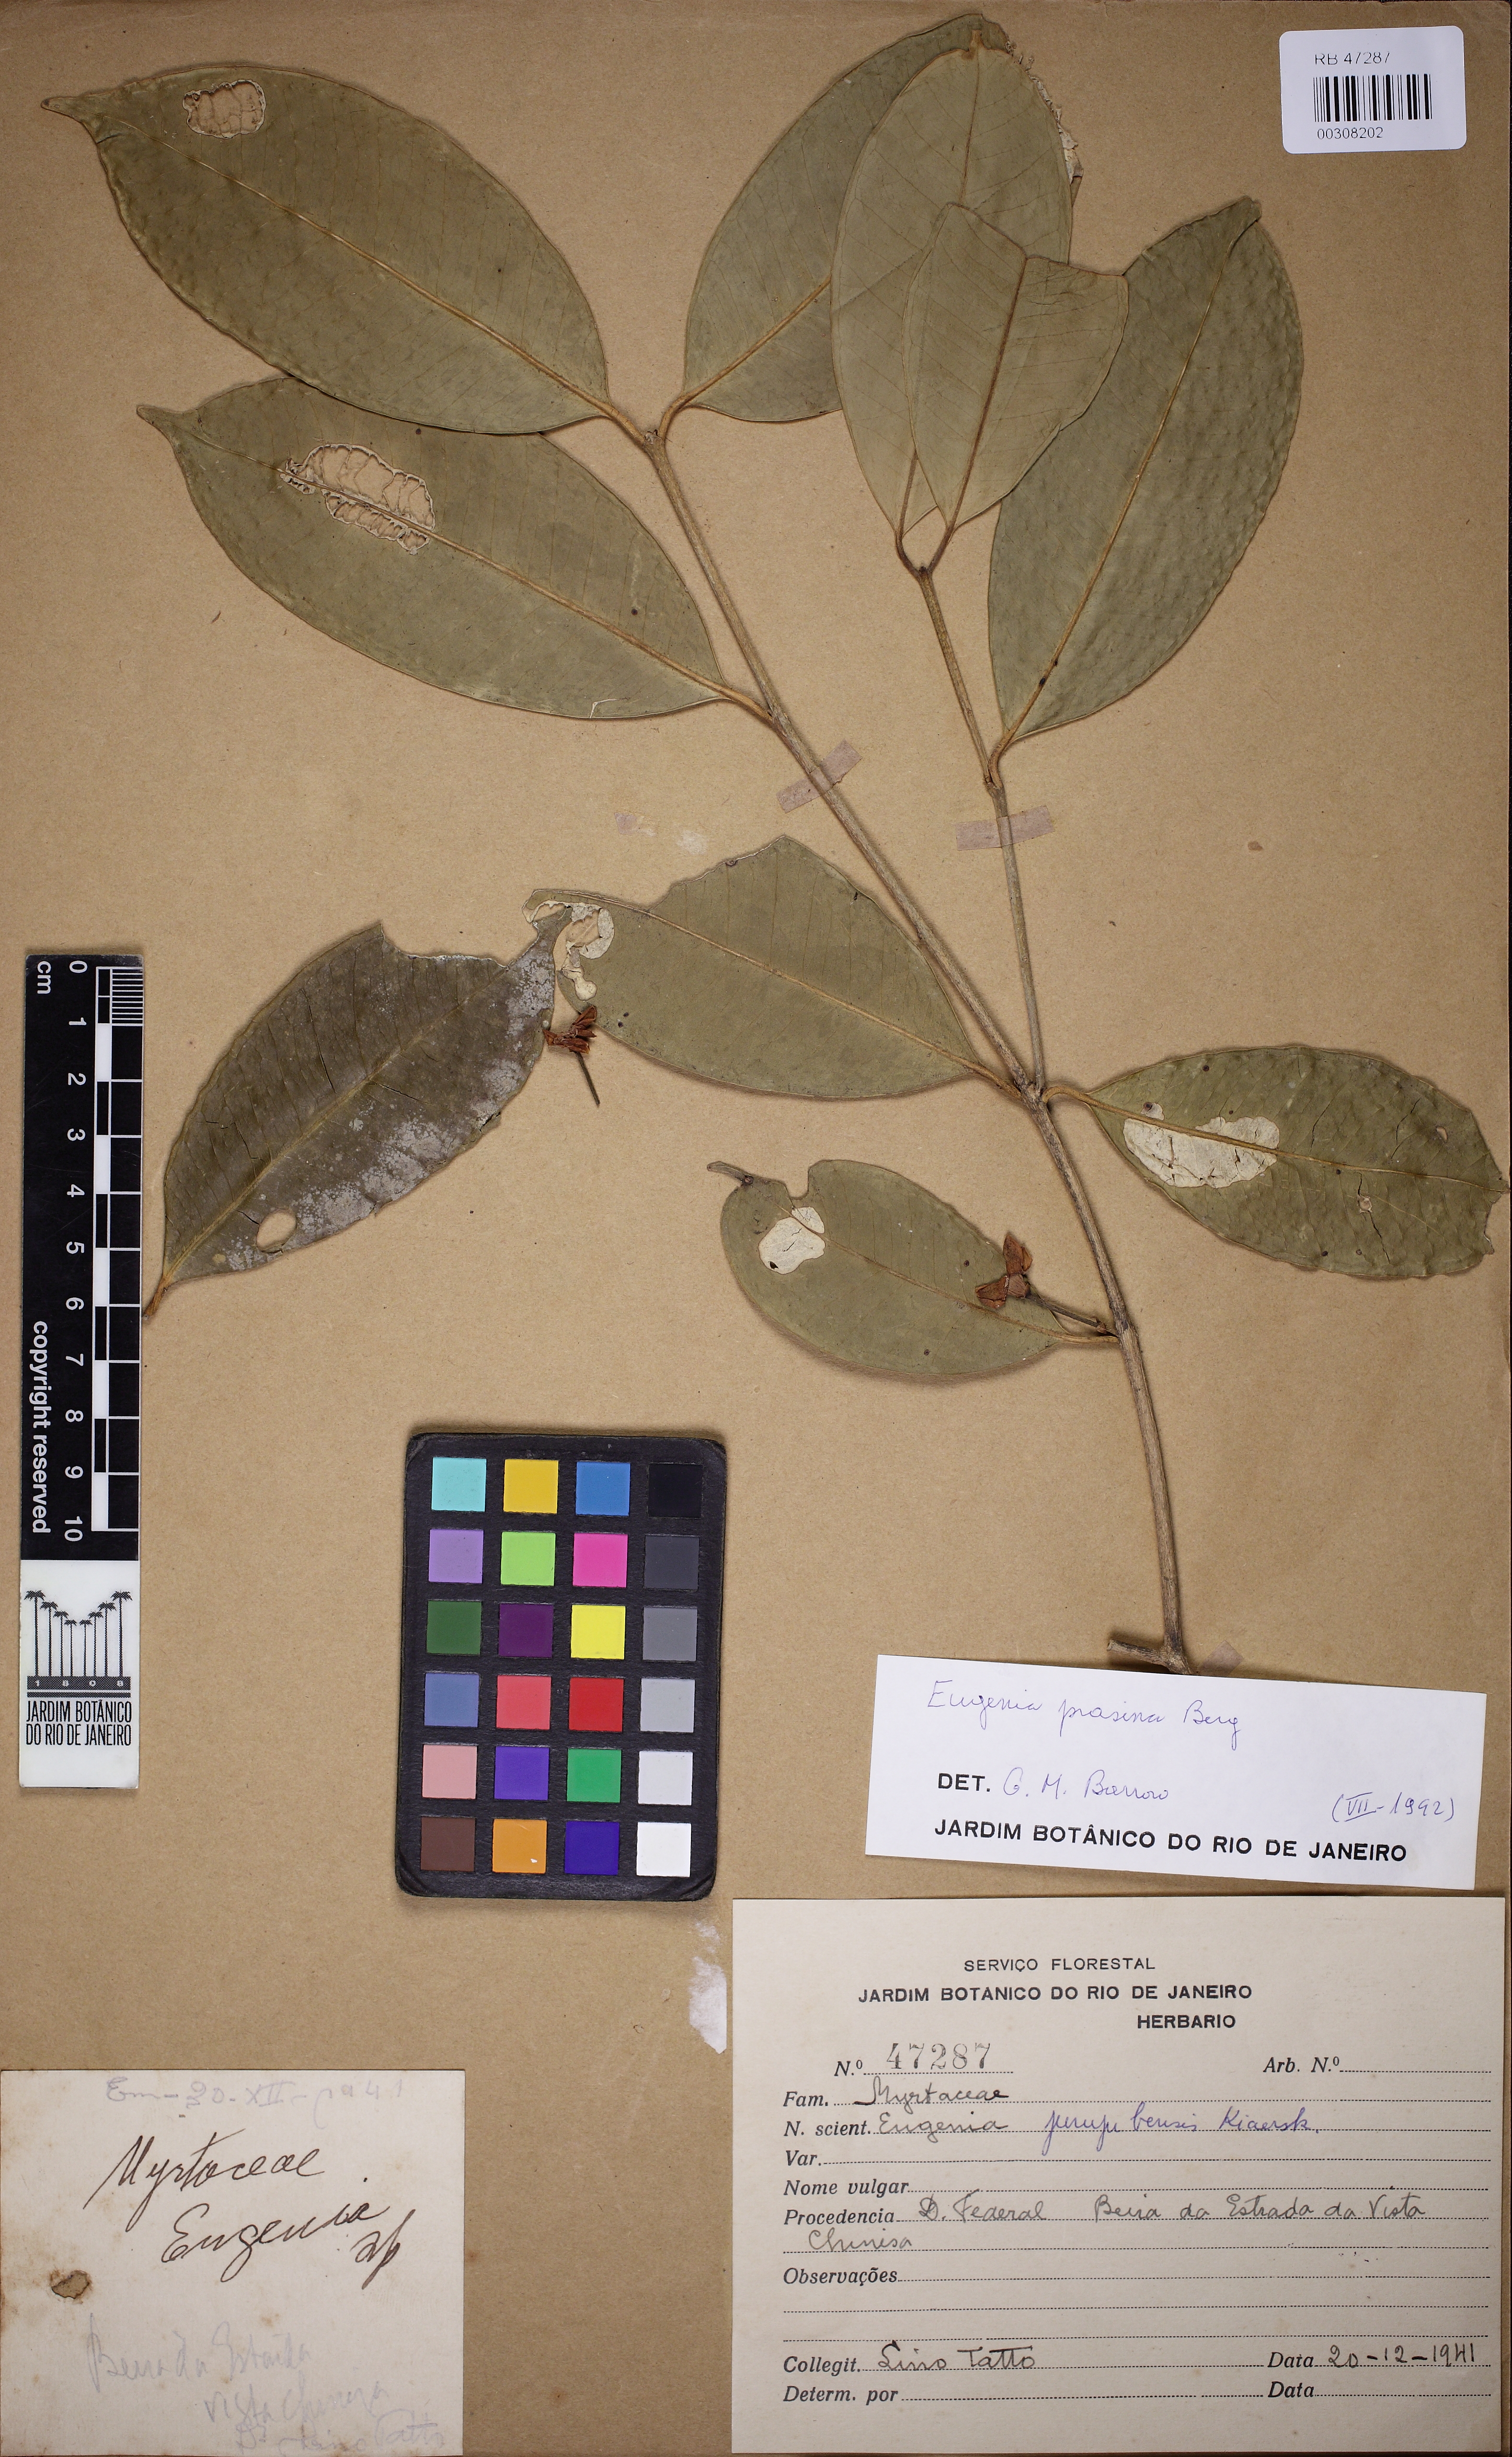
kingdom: Plantae
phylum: Tracheophyta
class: Magnoliopsida
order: Myrtales
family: Myrtaceae
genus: Eugenia
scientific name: Eugenia prasina
